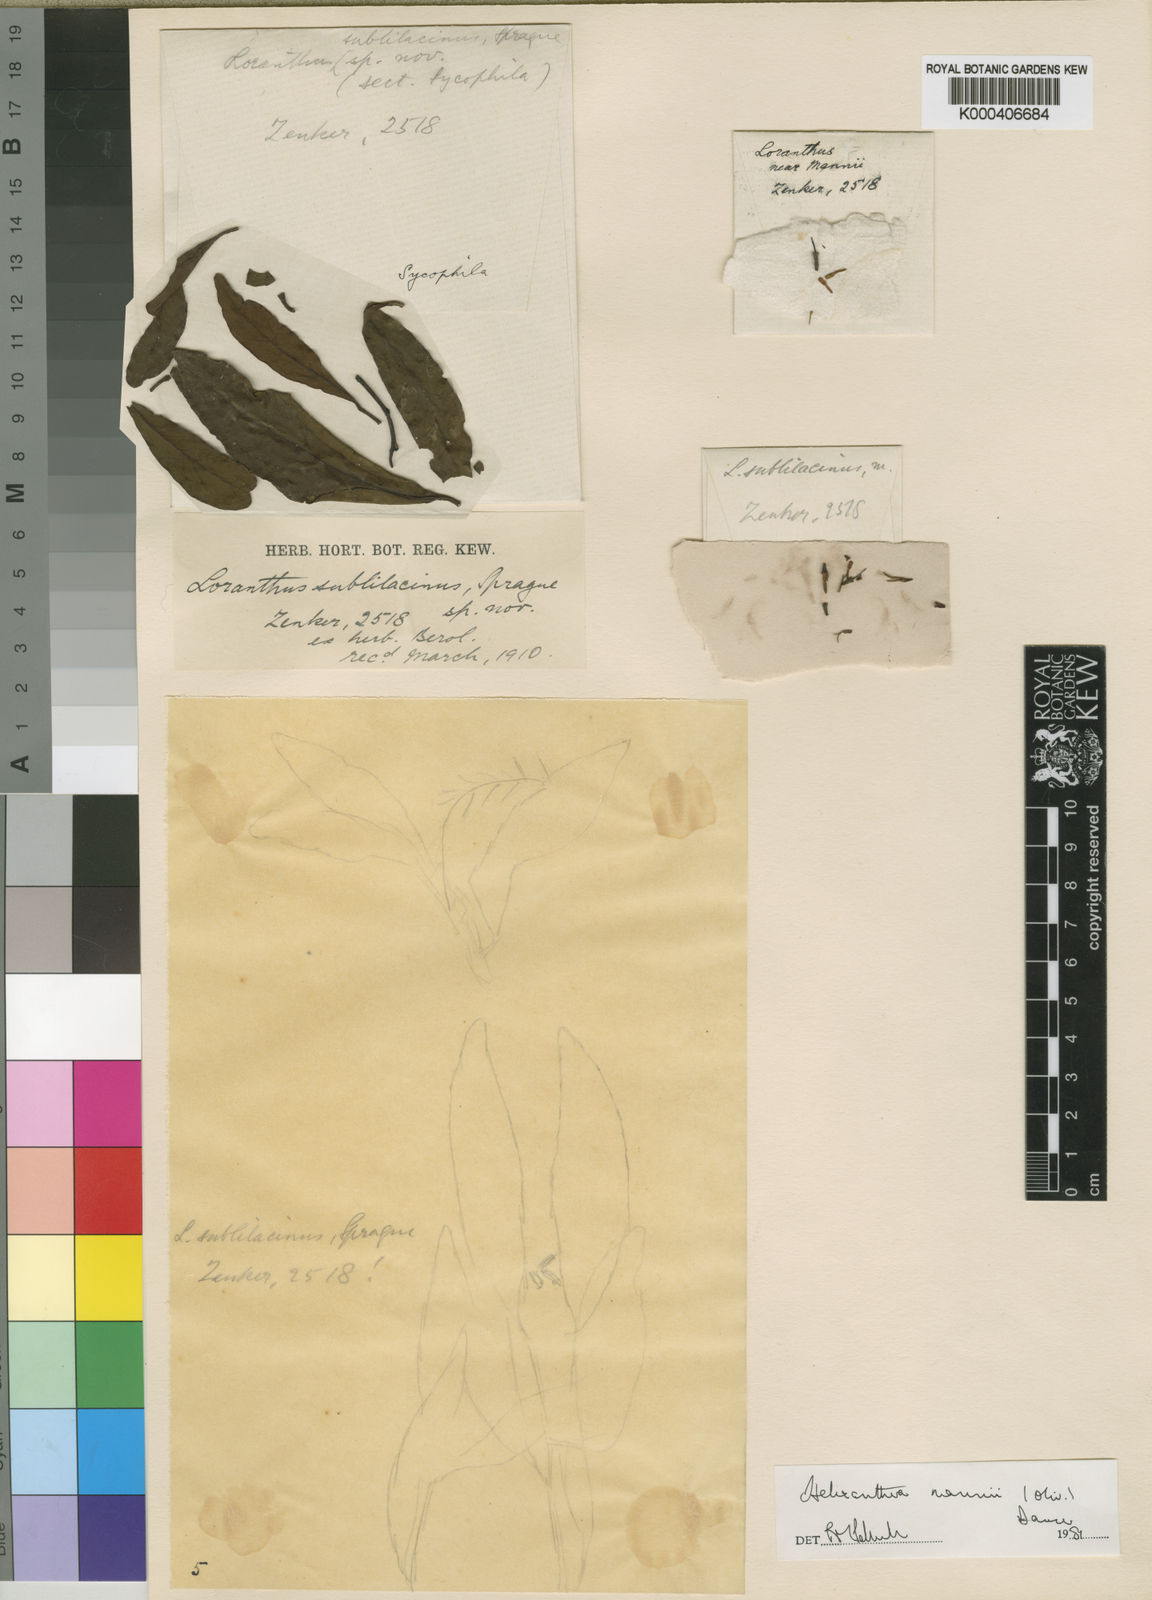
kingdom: Plantae
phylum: Tracheophyta
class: Magnoliopsida
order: Santalales
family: Loranthaceae
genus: Helixanthera
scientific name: Helixanthera mannii
